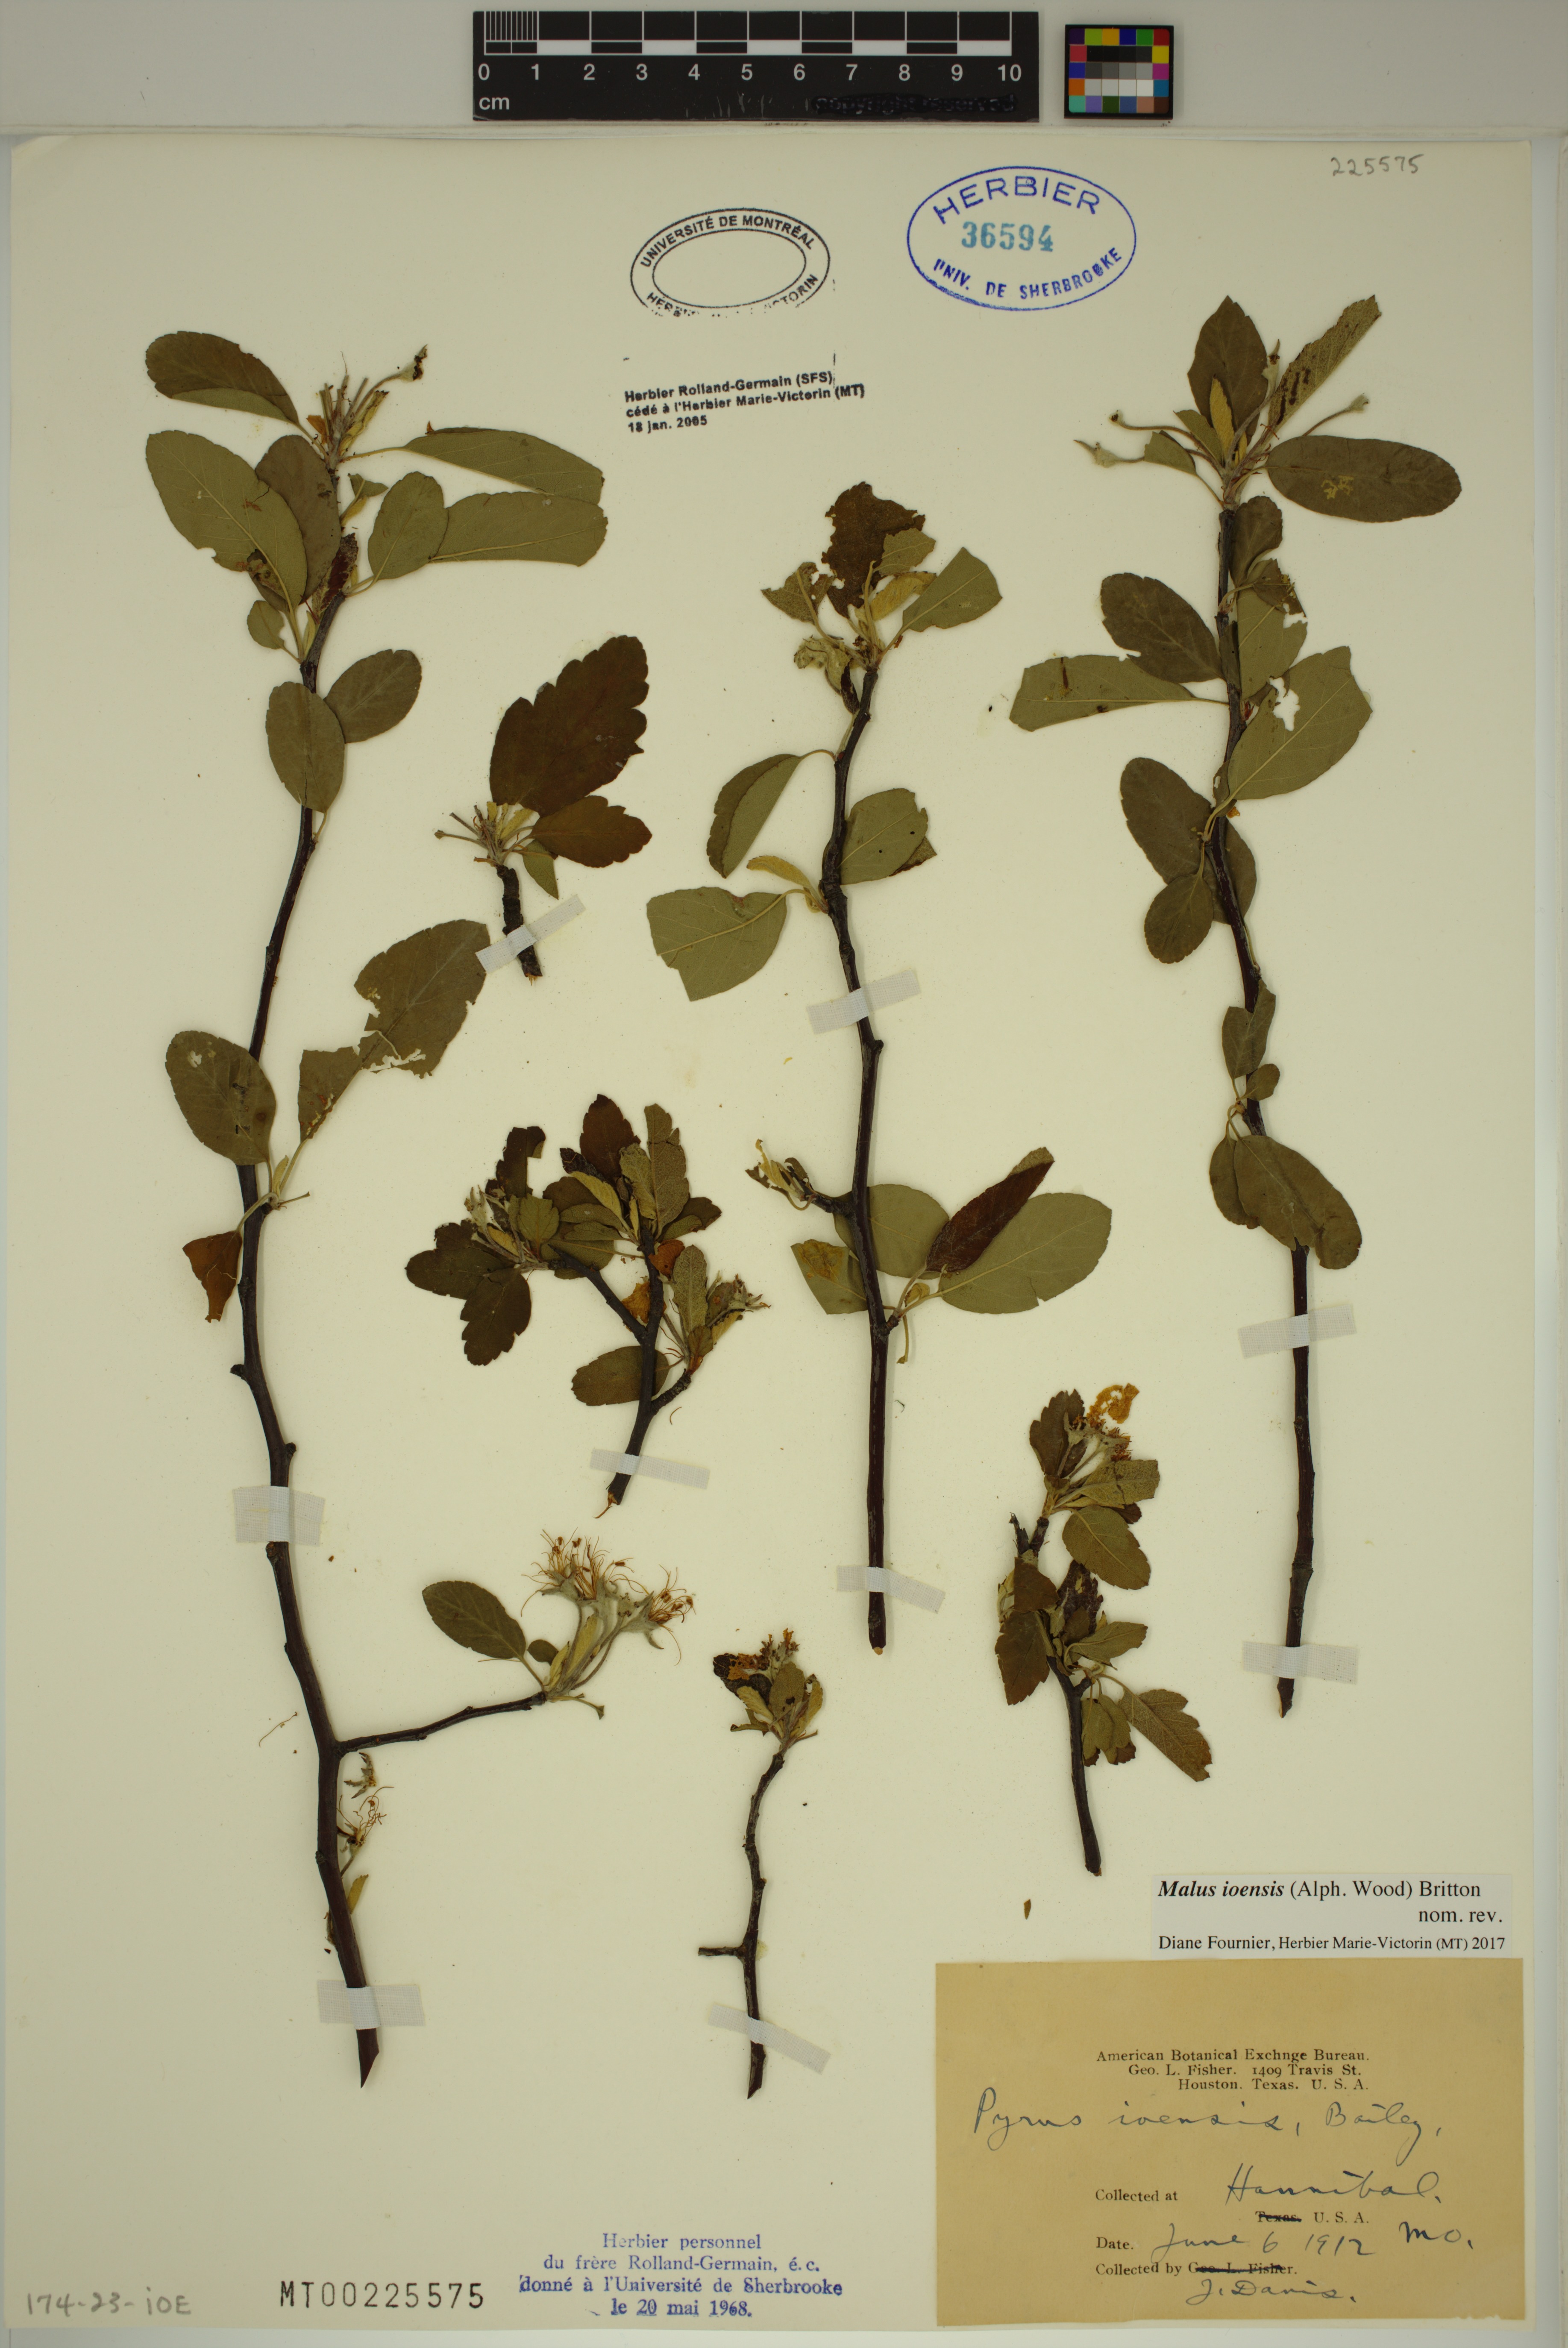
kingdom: Plantae
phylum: Tracheophyta
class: Magnoliopsida
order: Rosales
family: Rosaceae
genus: Malus
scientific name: Malus ioensis
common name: Iowa crab apple
